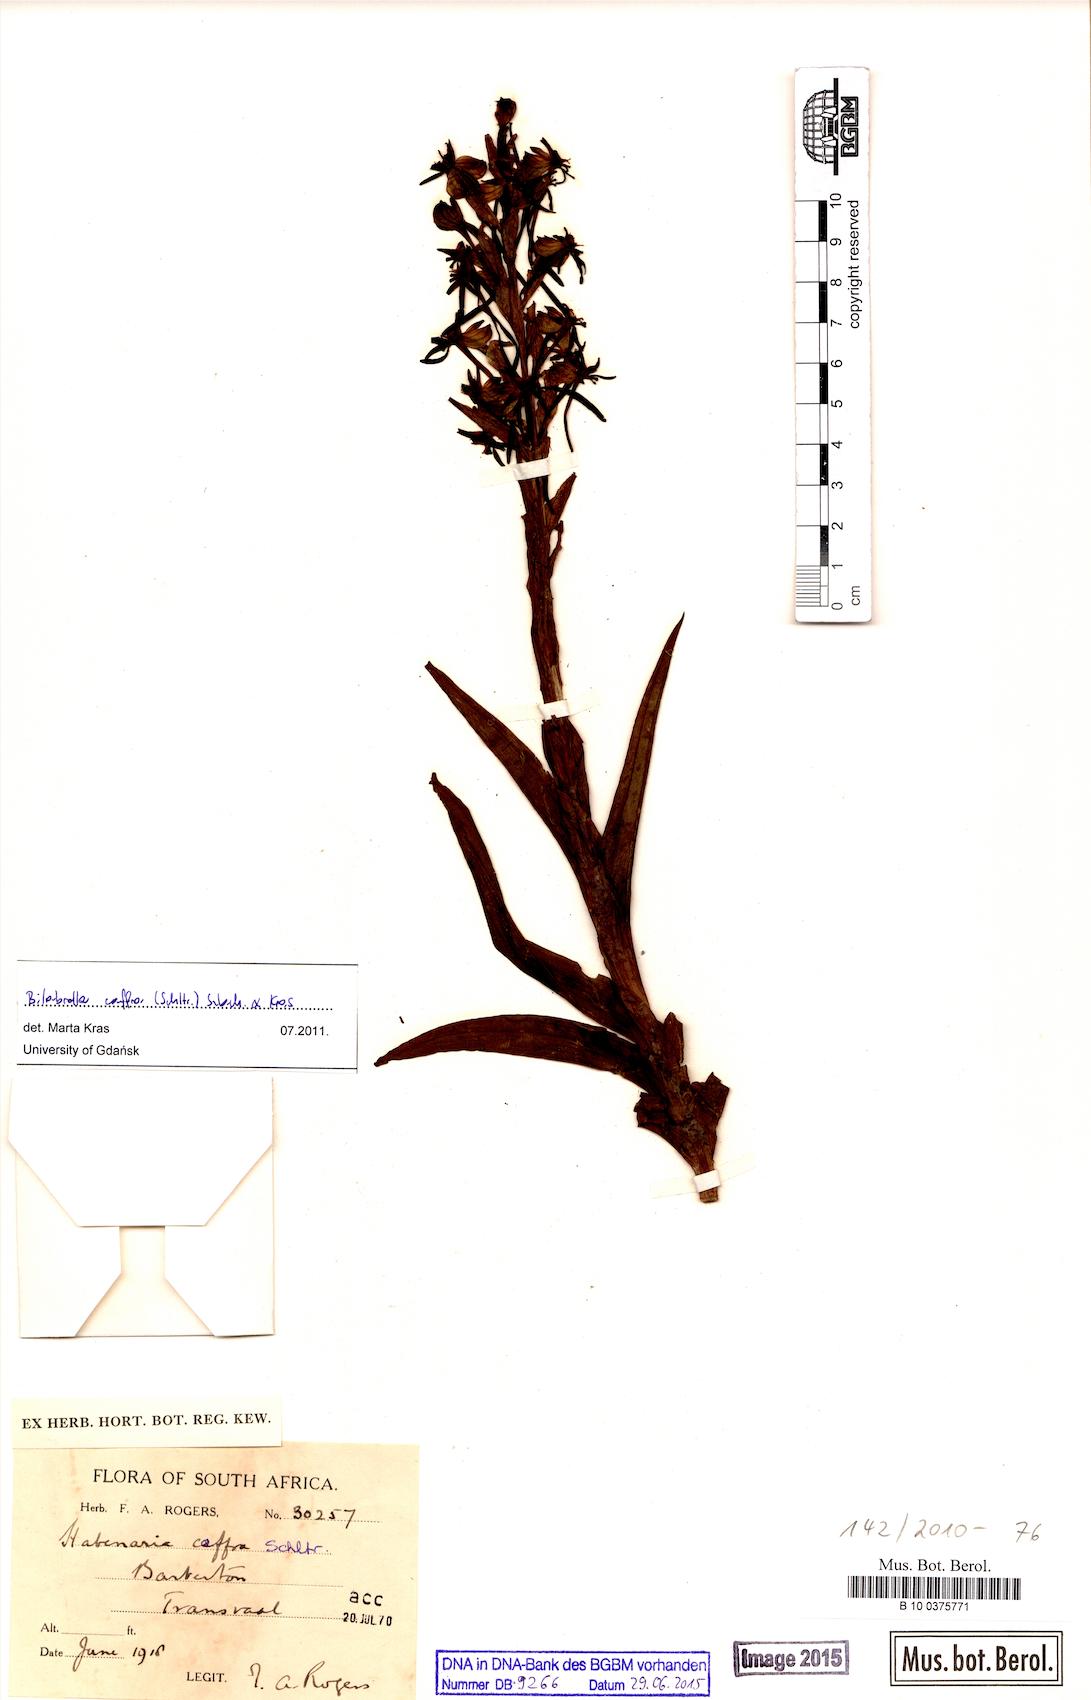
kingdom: Plantae
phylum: Tracheophyta
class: Liliopsida
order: Asparagales
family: Orchidaceae
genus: Habenaria
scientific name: Habenaria caffra
